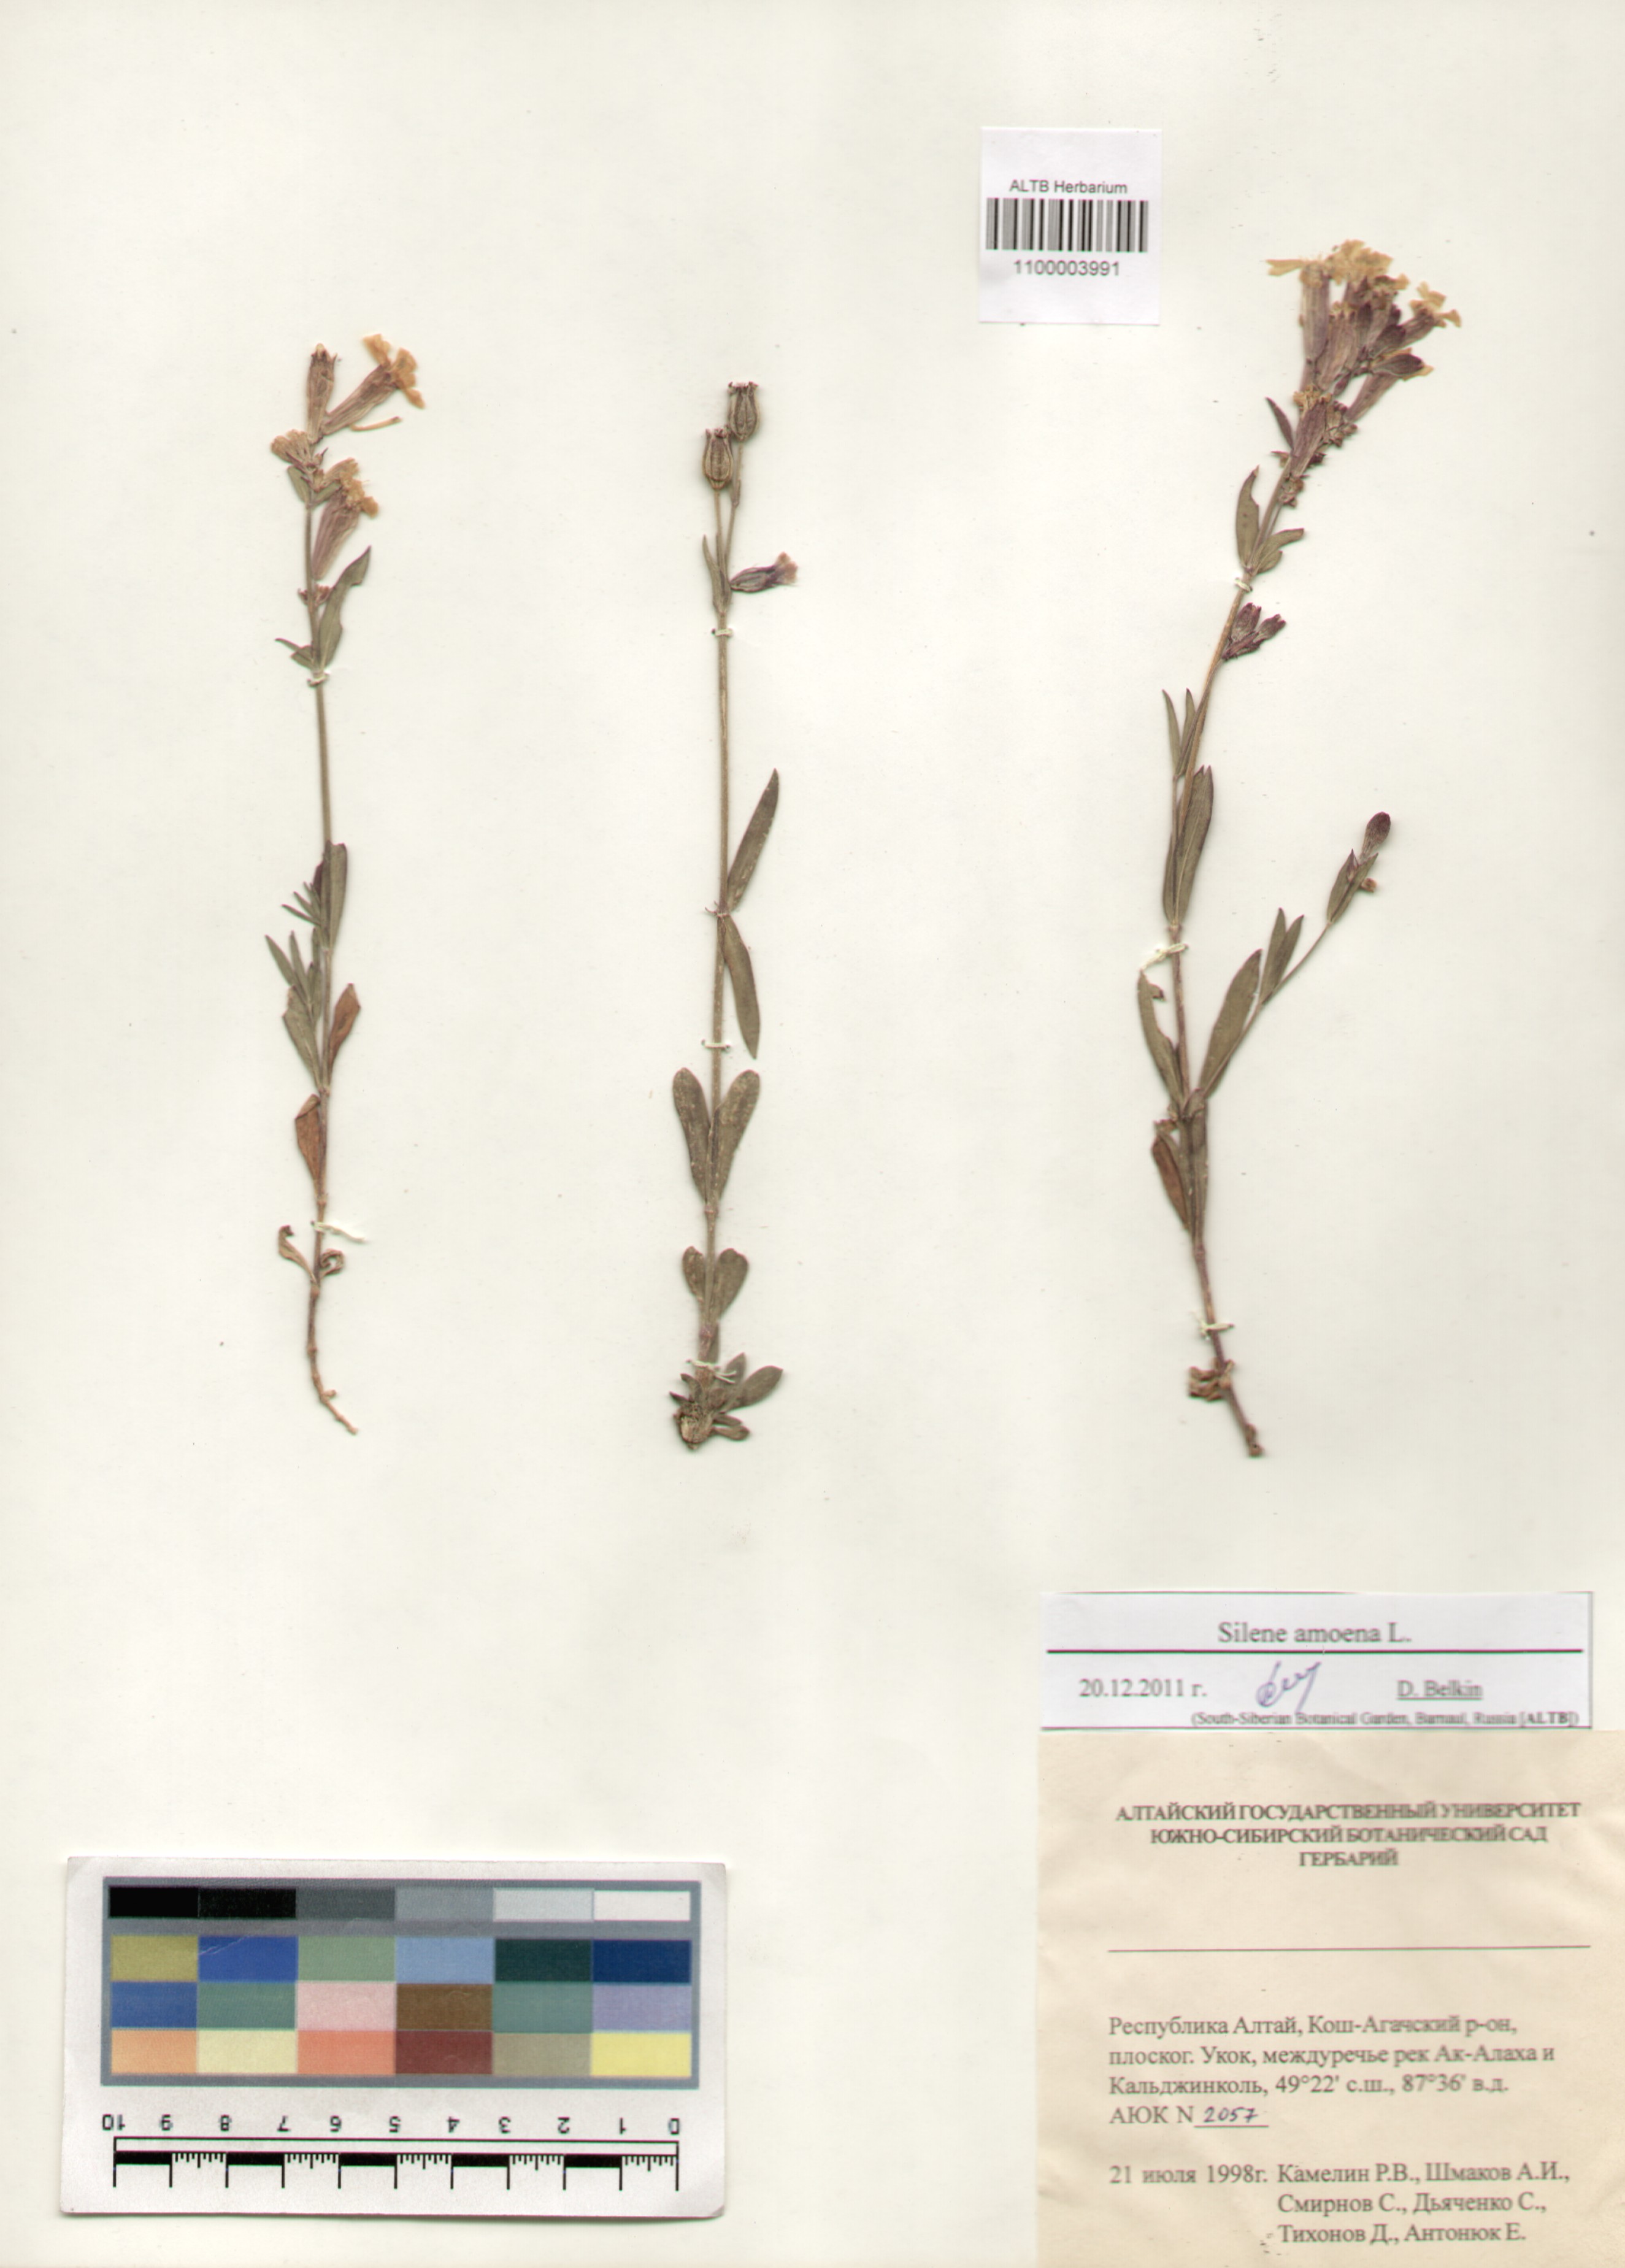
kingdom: Plantae
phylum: Tracheophyta
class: Magnoliopsida
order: Caryophyllales
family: Caryophyllaceae
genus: Silene
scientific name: Silene amoena
